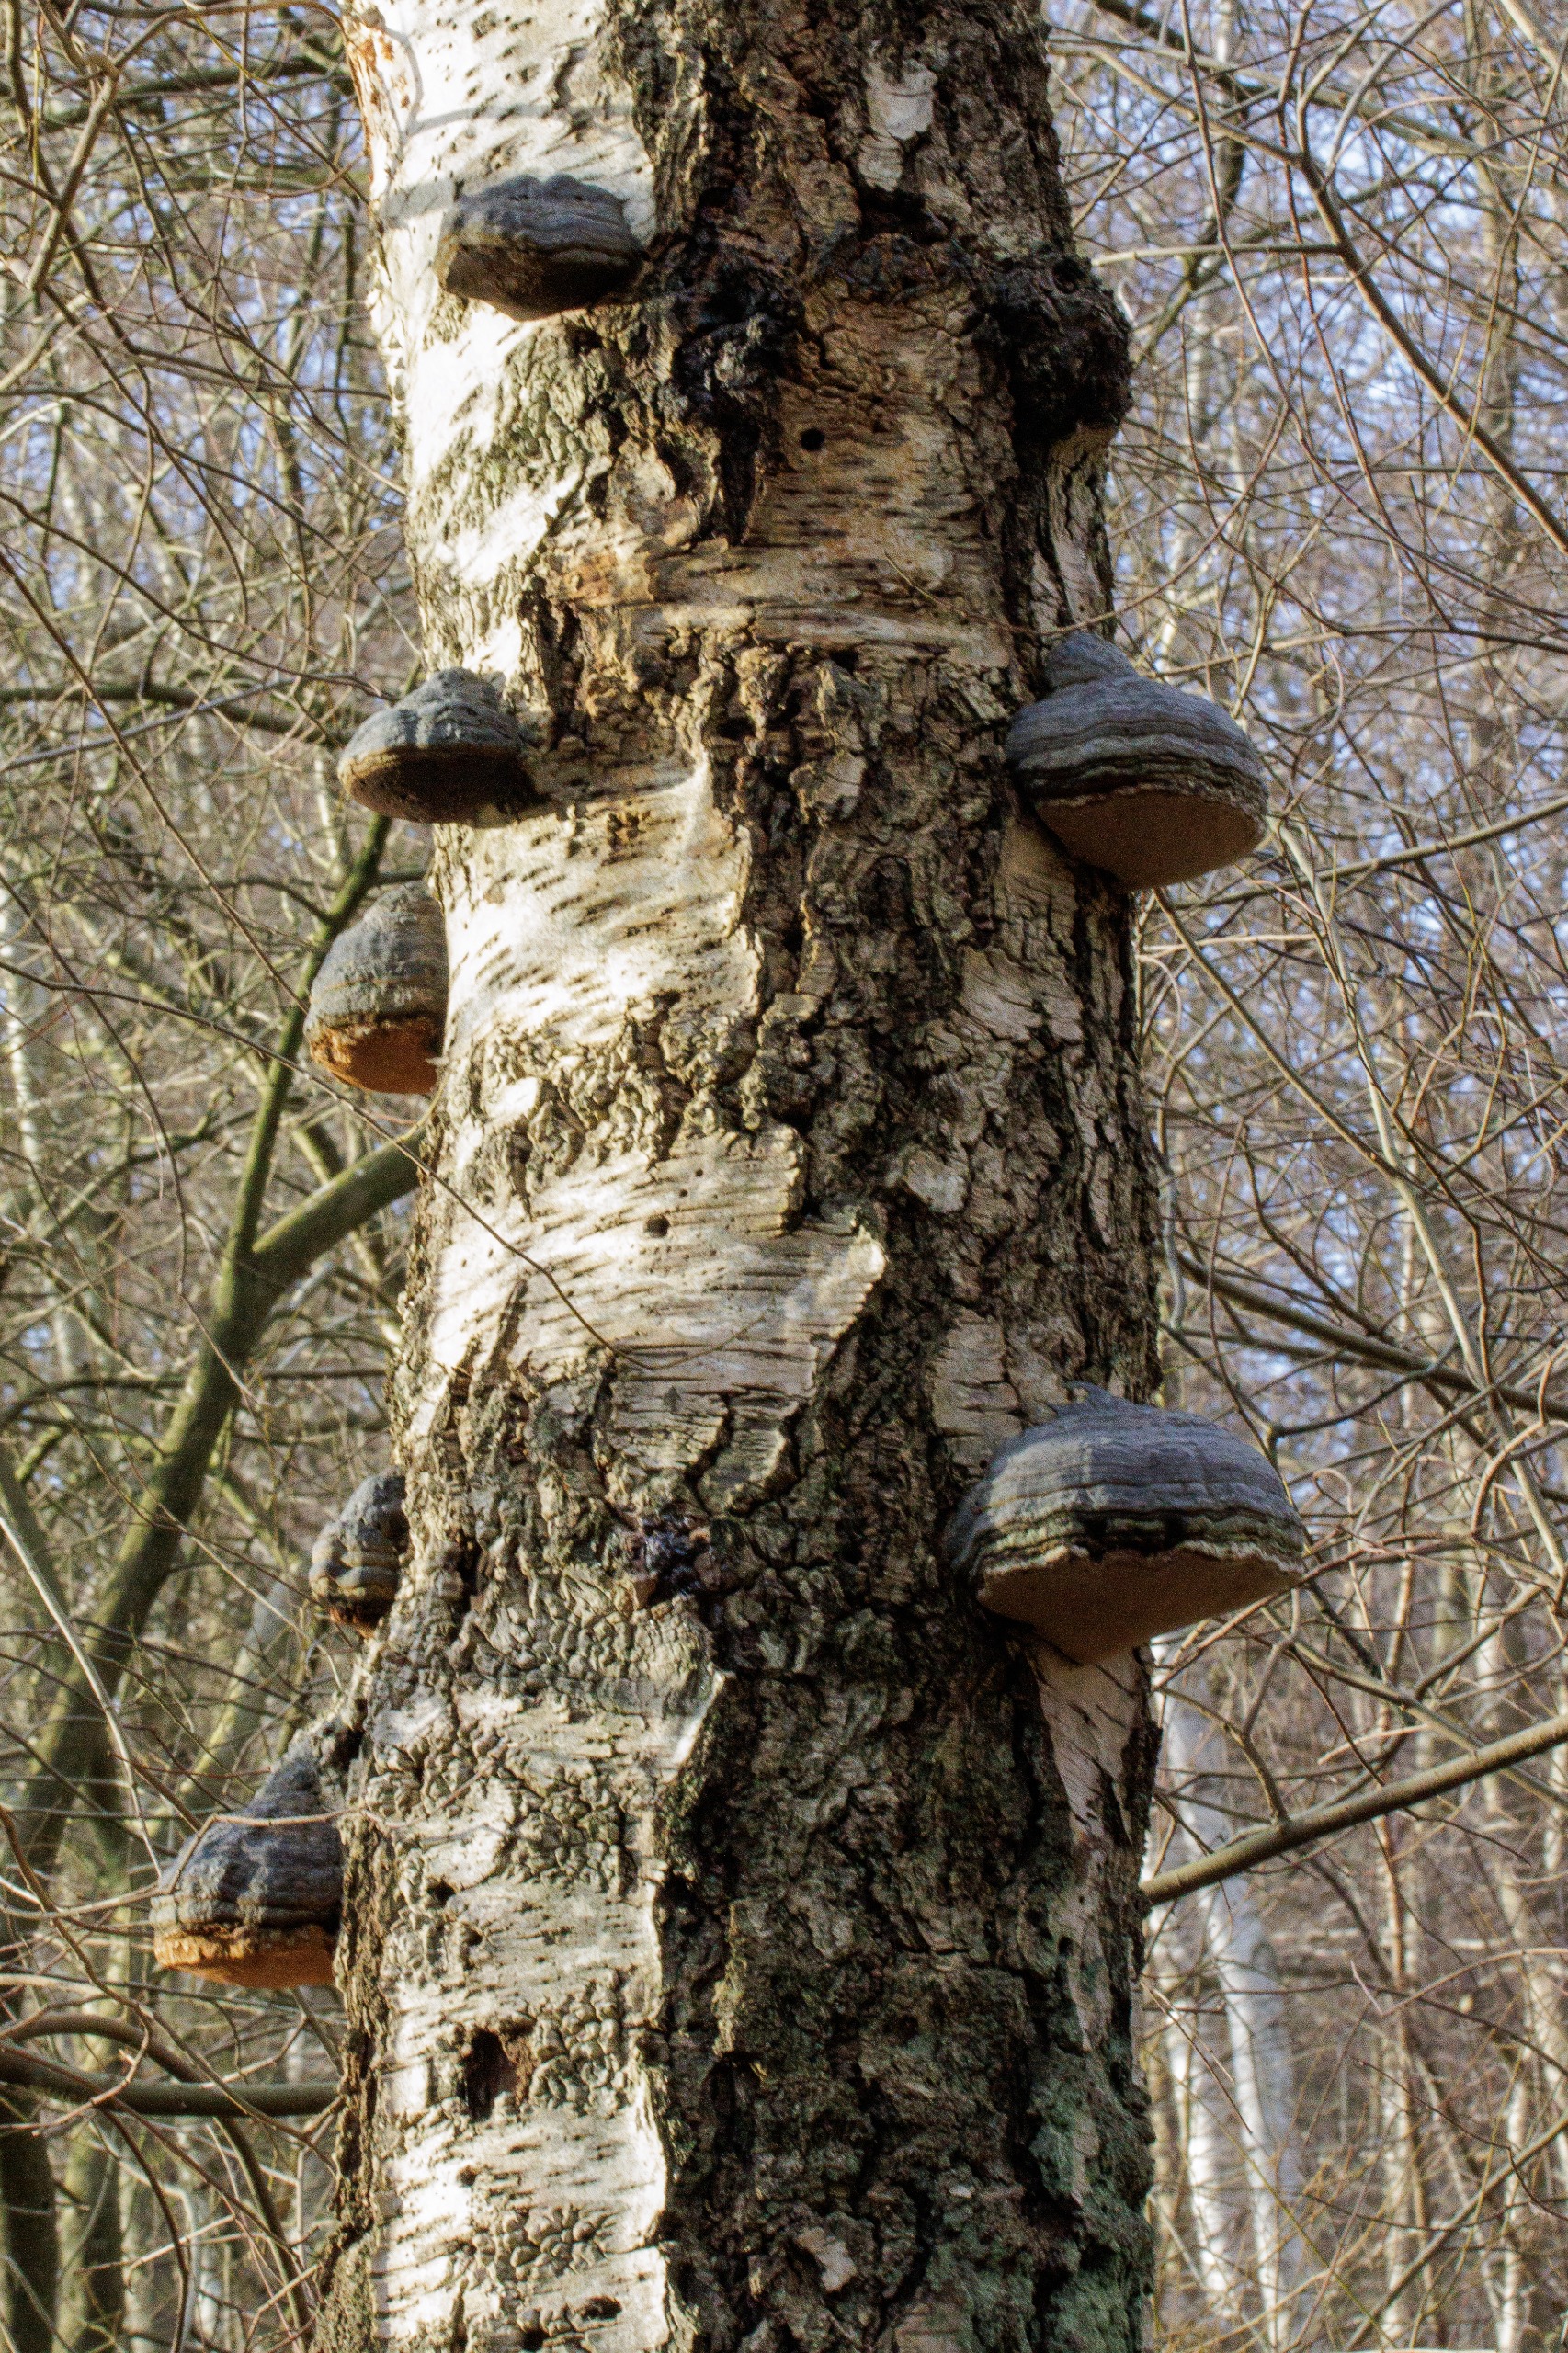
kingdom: Fungi
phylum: Basidiomycota
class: Agaricomycetes
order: Polyporales
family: Polyporaceae
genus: Fomes
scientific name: Fomes fomentarius
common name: Tøndersvamp
